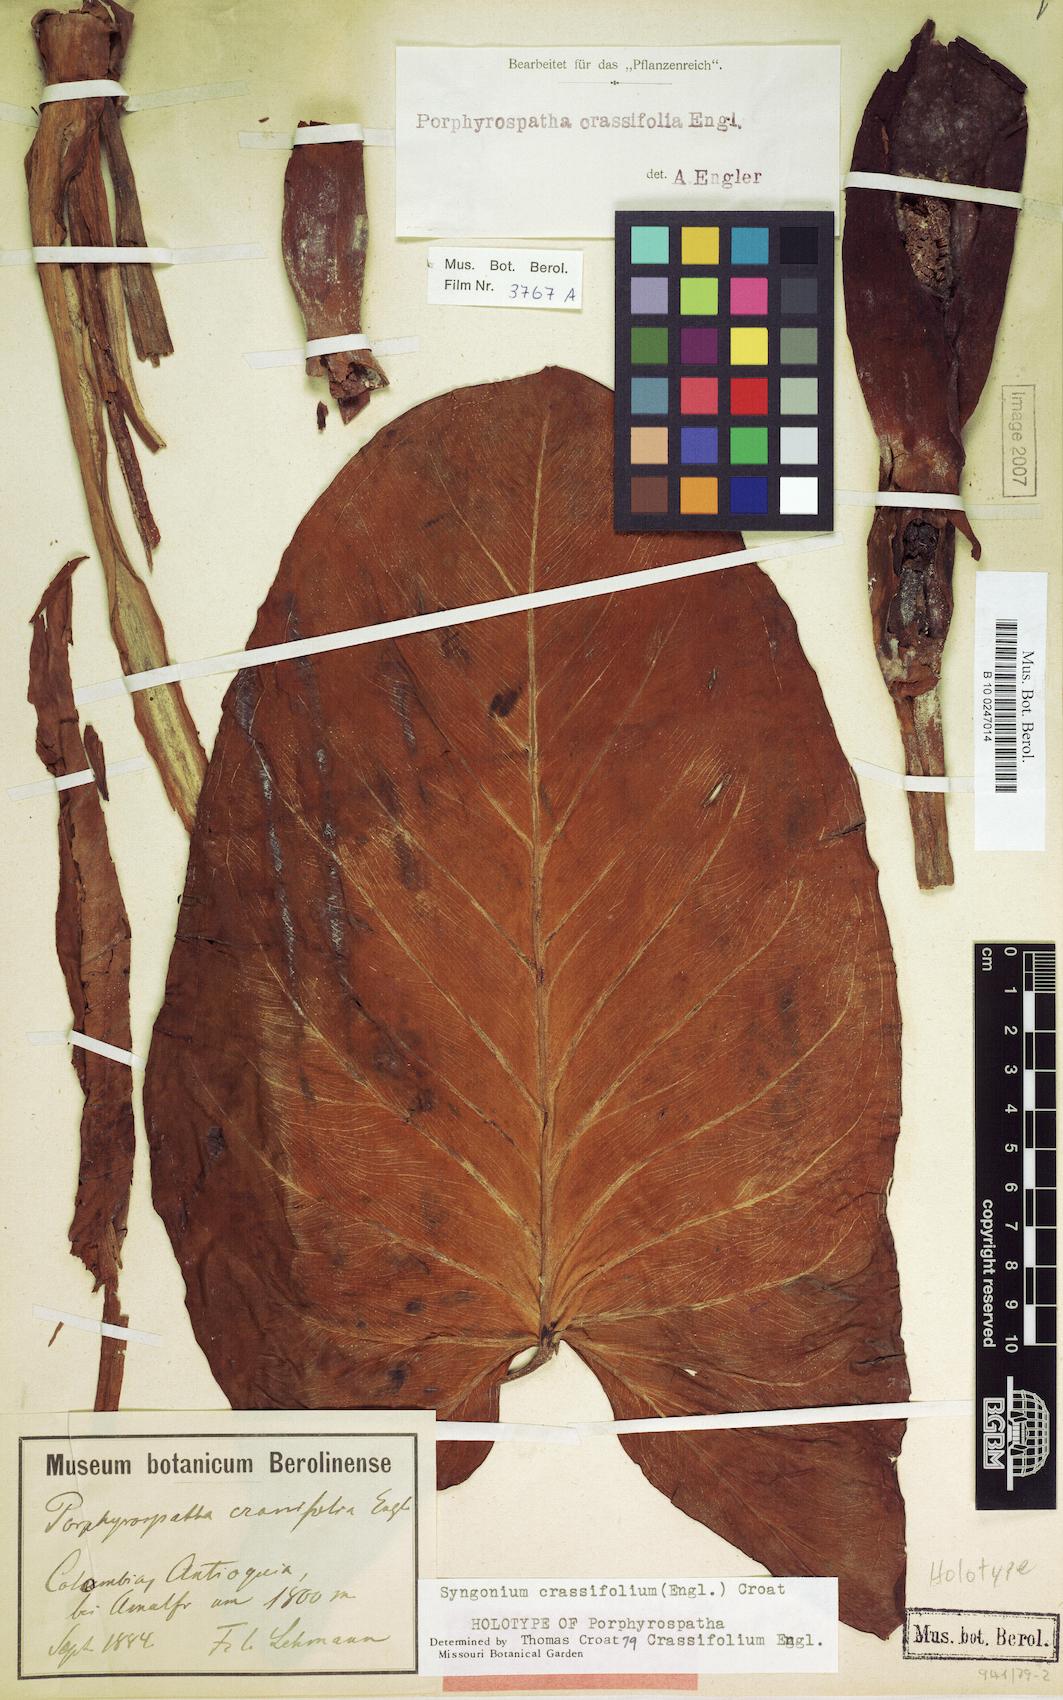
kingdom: Plantae
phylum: Tracheophyta
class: Liliopsida
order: Alismatales
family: Araceae
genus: Syngonium
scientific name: Syngonium crassifolium
